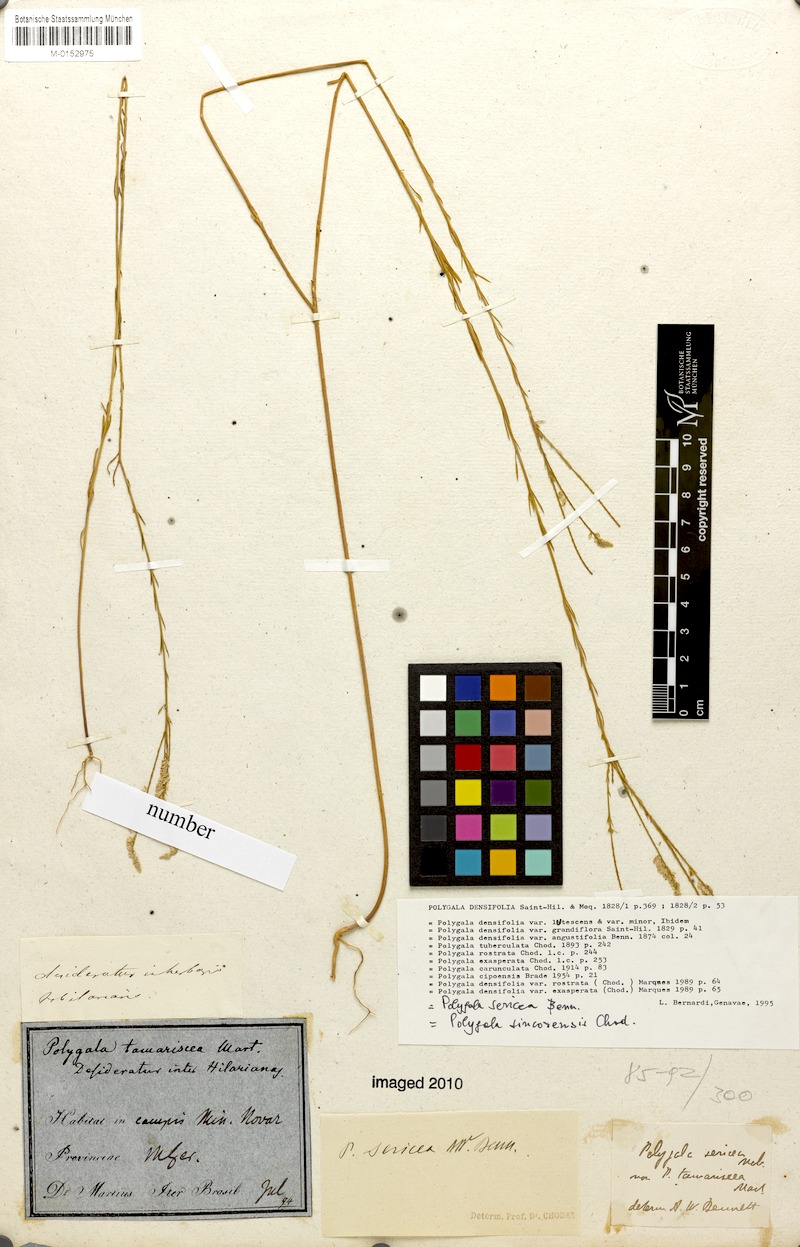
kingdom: Plantae
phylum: Tracheophyta
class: Magnoliopsida
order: Fabales
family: Polygalaceae
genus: Polygala
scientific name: Polygala densifolia
